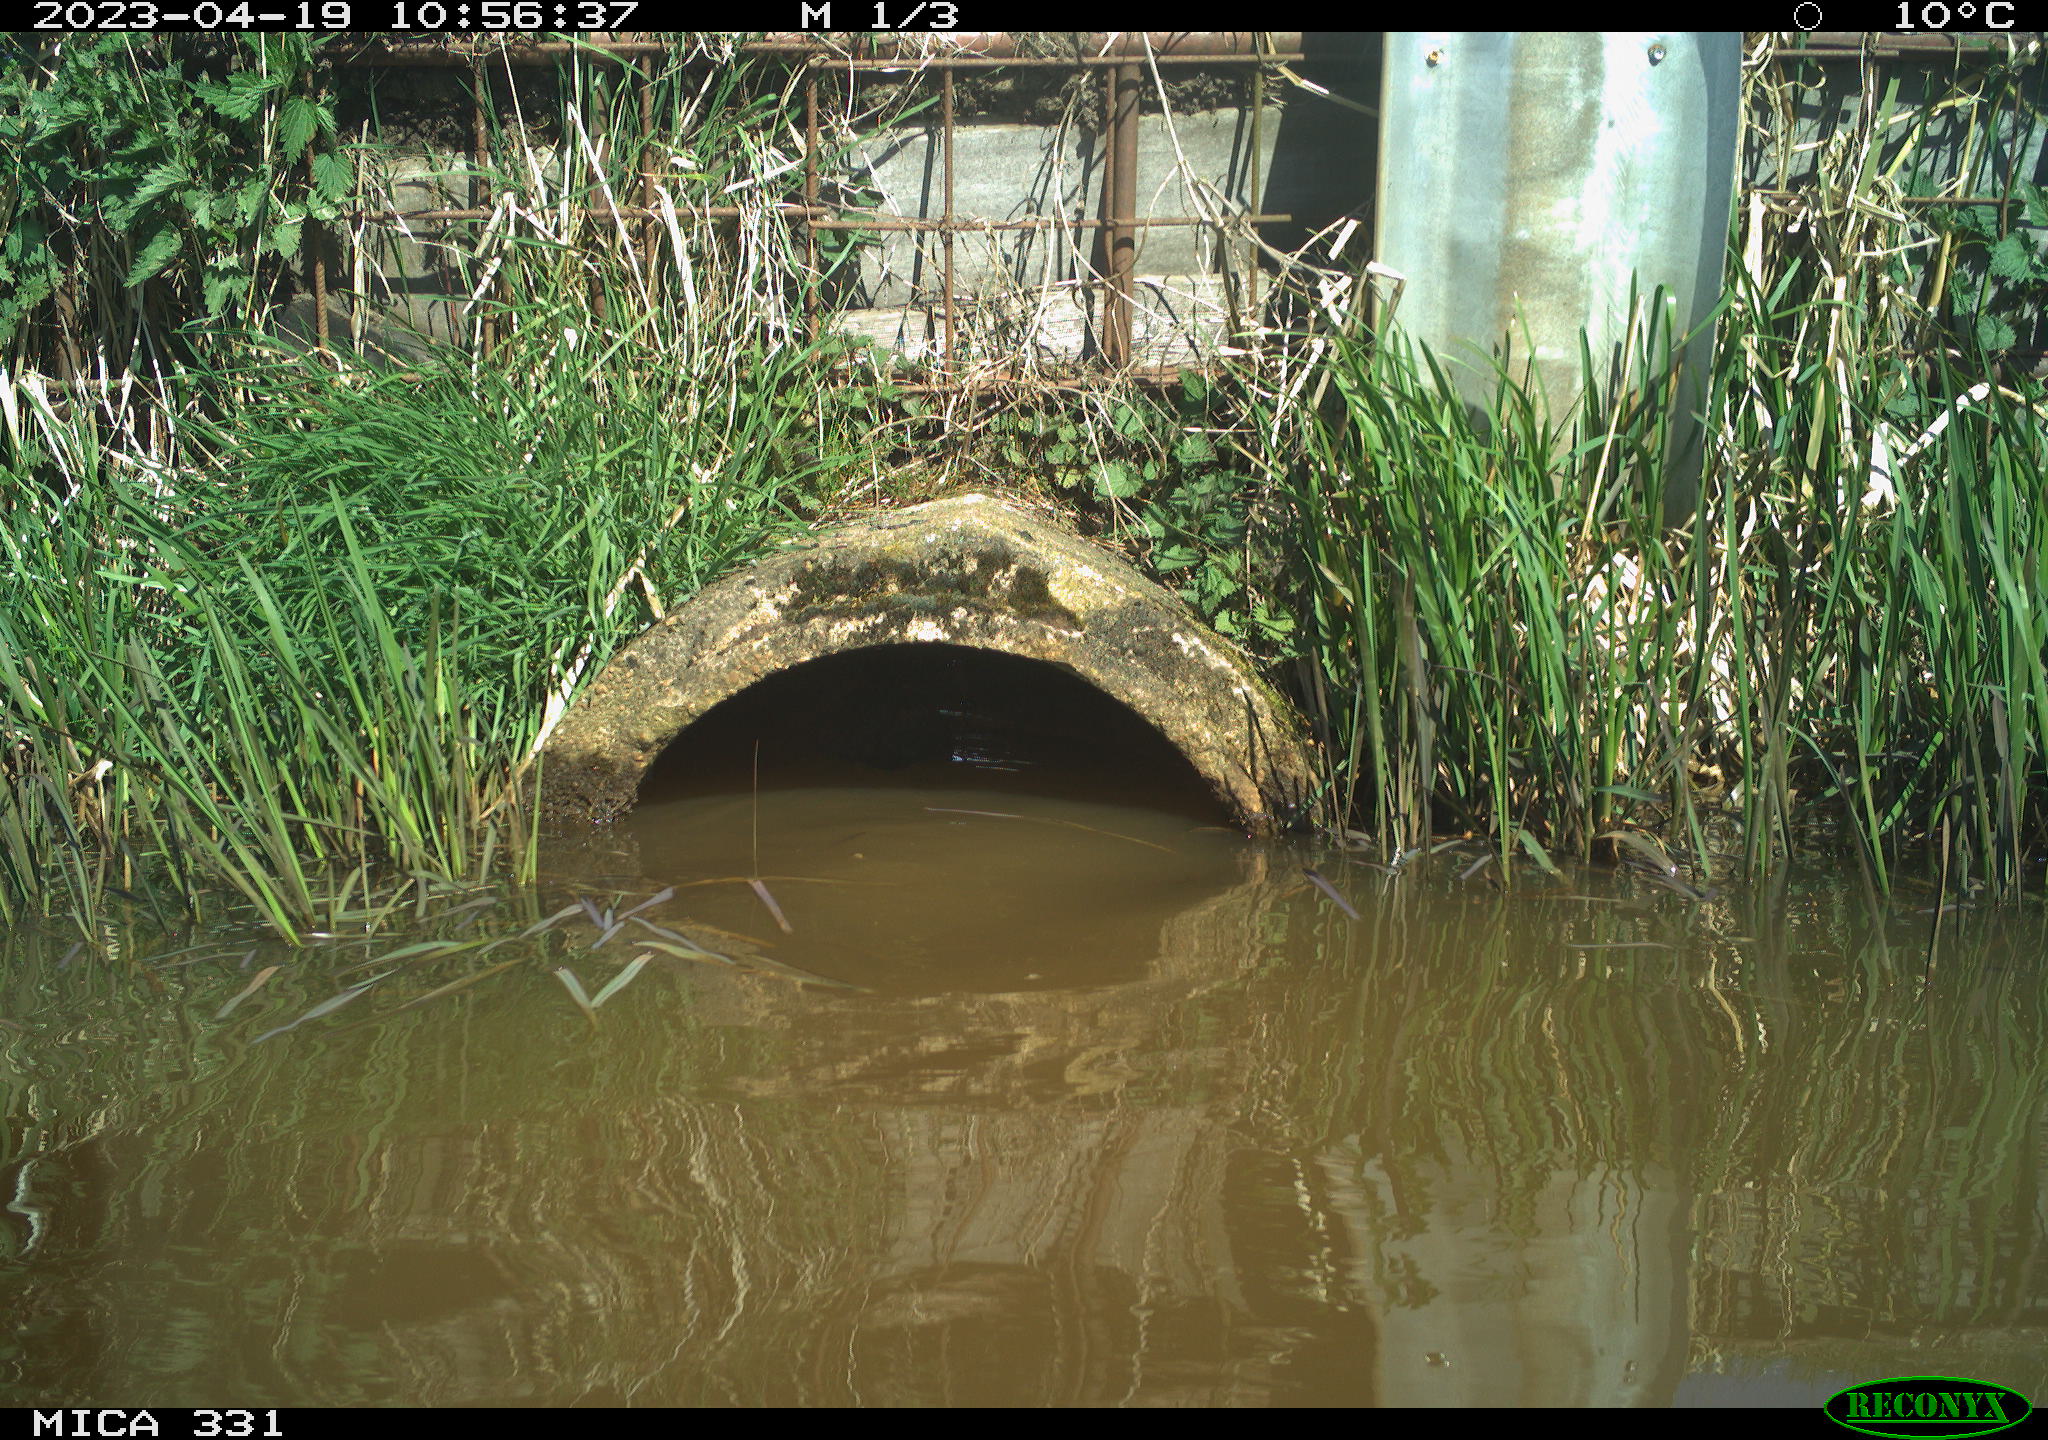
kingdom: Animalia
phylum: Chordata
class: Aves
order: Gruiformes
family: Rallidae
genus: Fulica
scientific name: Fulica atra
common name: Eurasian coot
